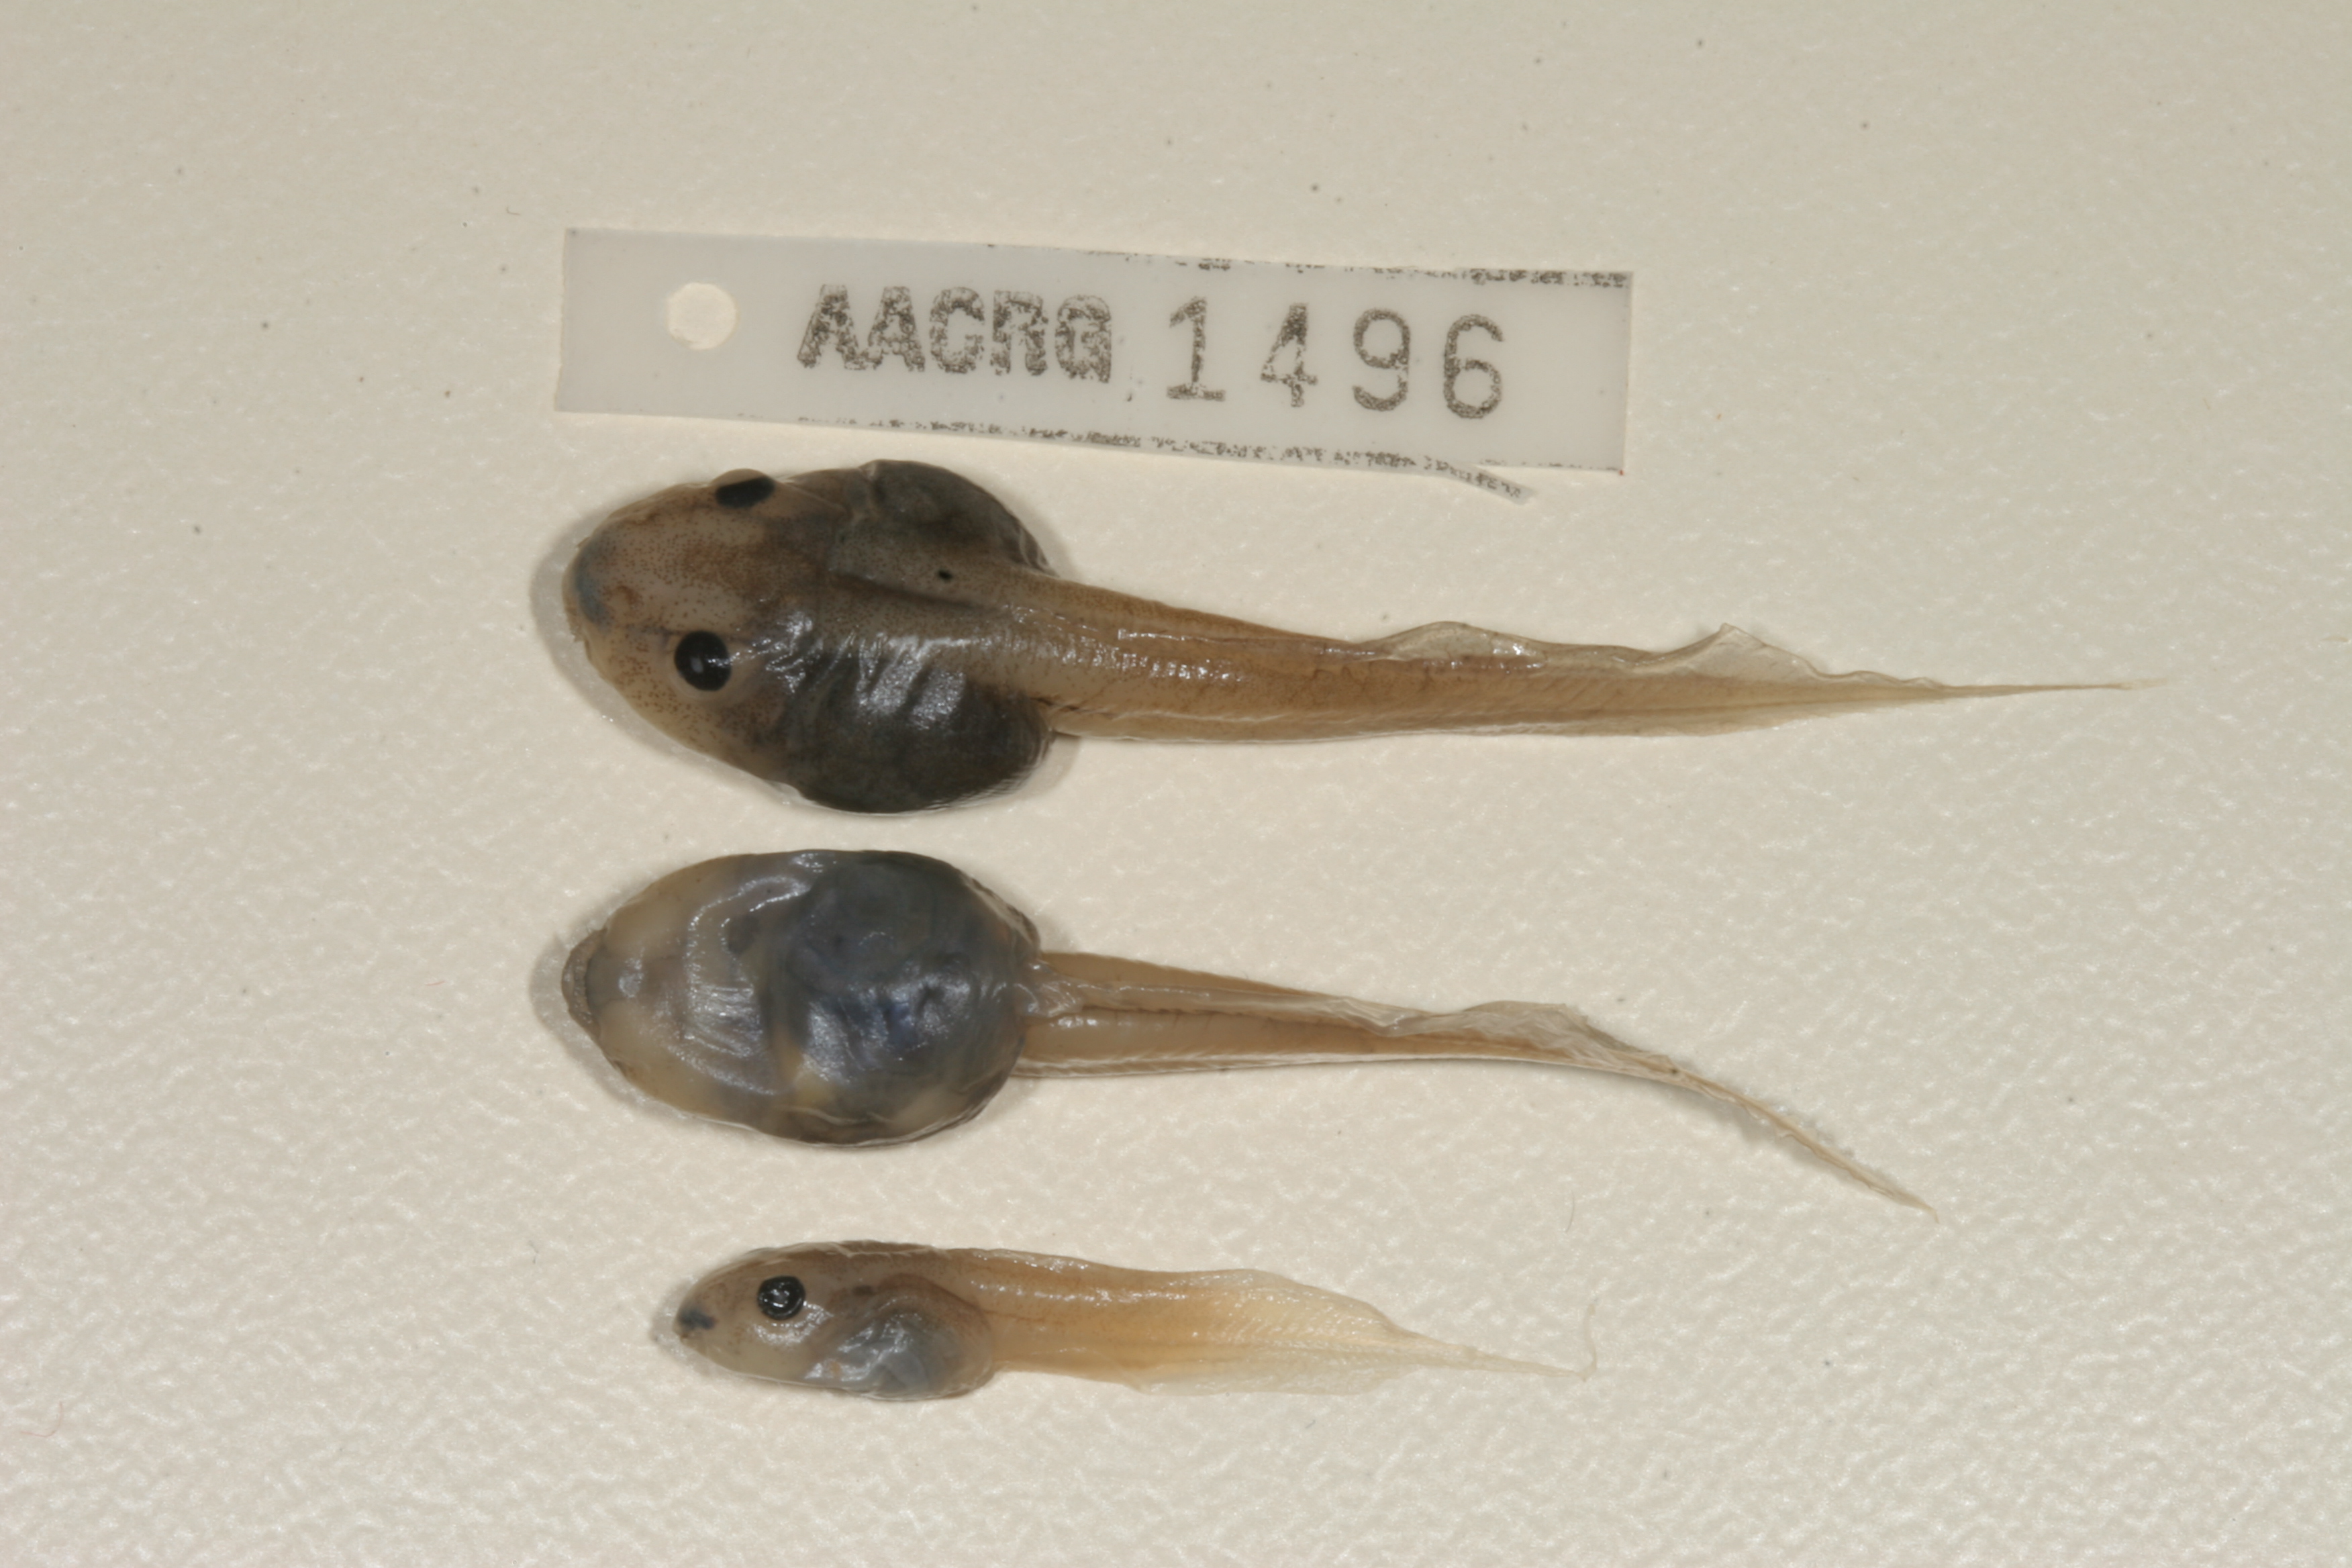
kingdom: Animalia
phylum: Chordata
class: Amphibia
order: Anura
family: Ptychadenidae
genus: Hildebrandtia
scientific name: Hildebrandtia ornata
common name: Ornate frog
